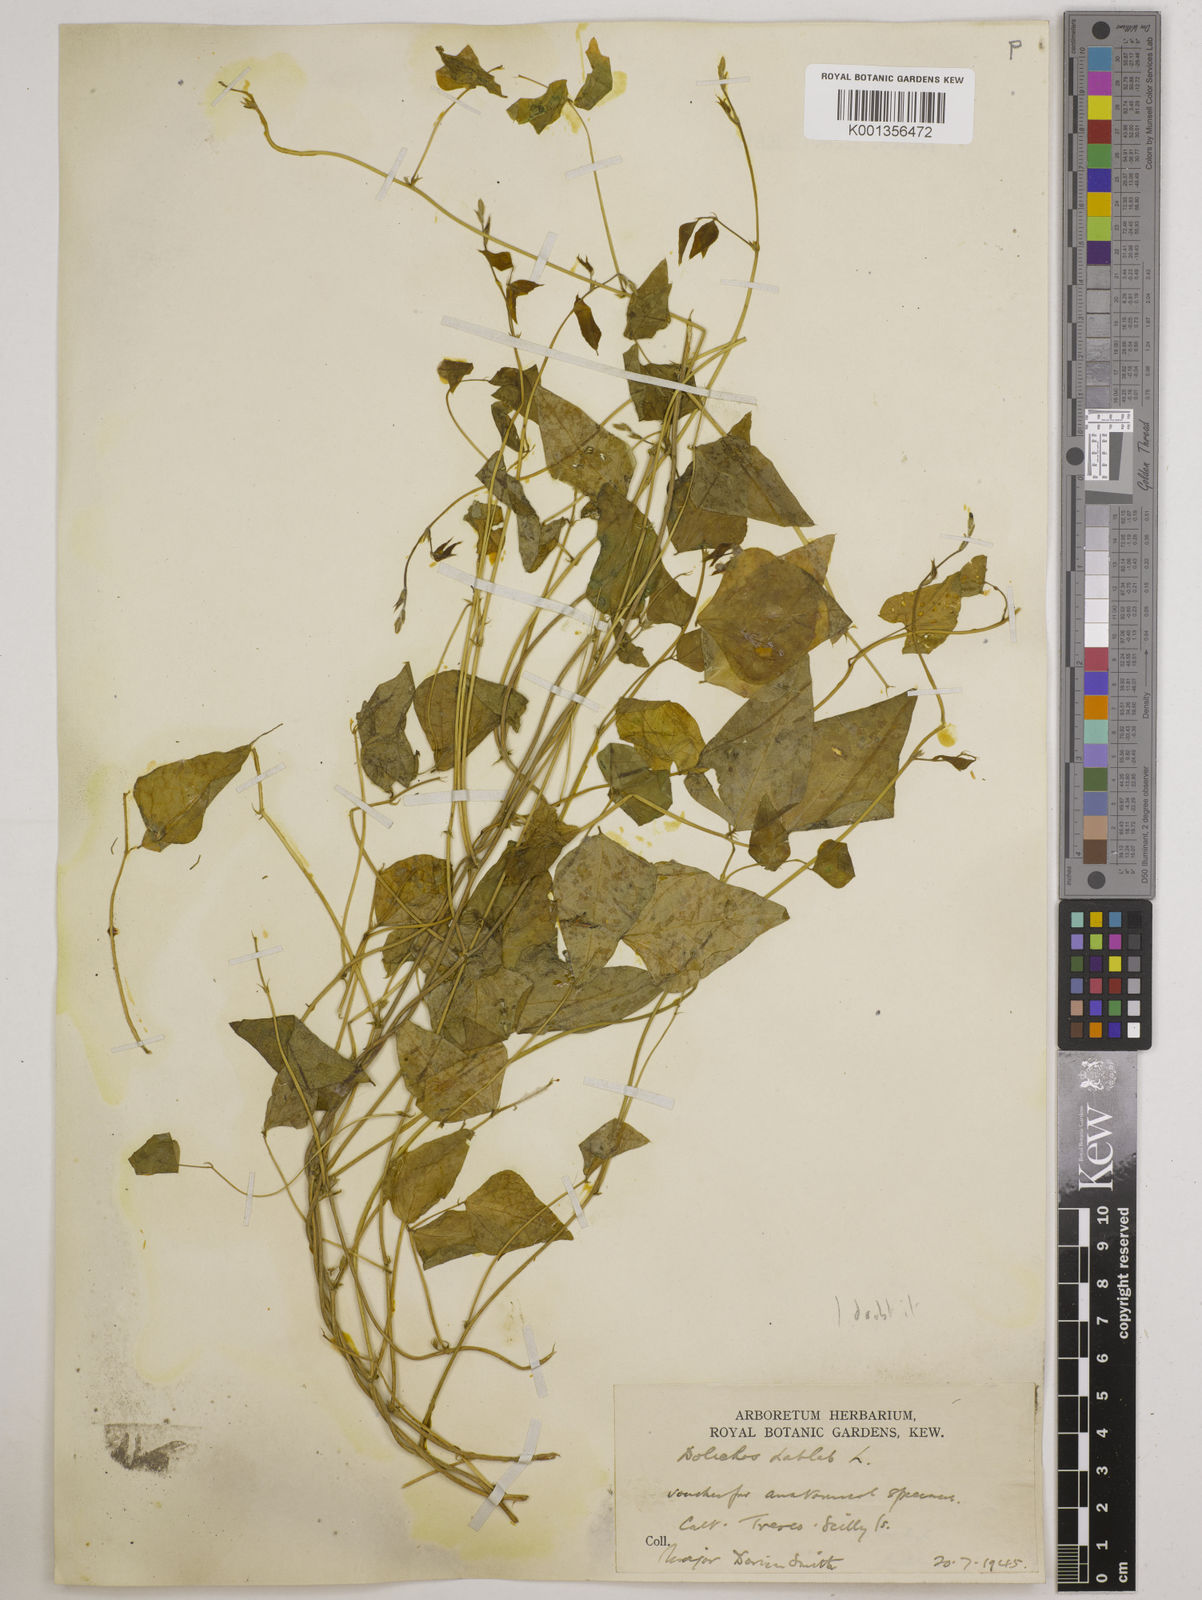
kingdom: Plantae
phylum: Tracheophyta
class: Magnoliopsida
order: Fabales
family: Fabaceae
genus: Lablab
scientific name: Lablab purpureus
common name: Lablab-bean
